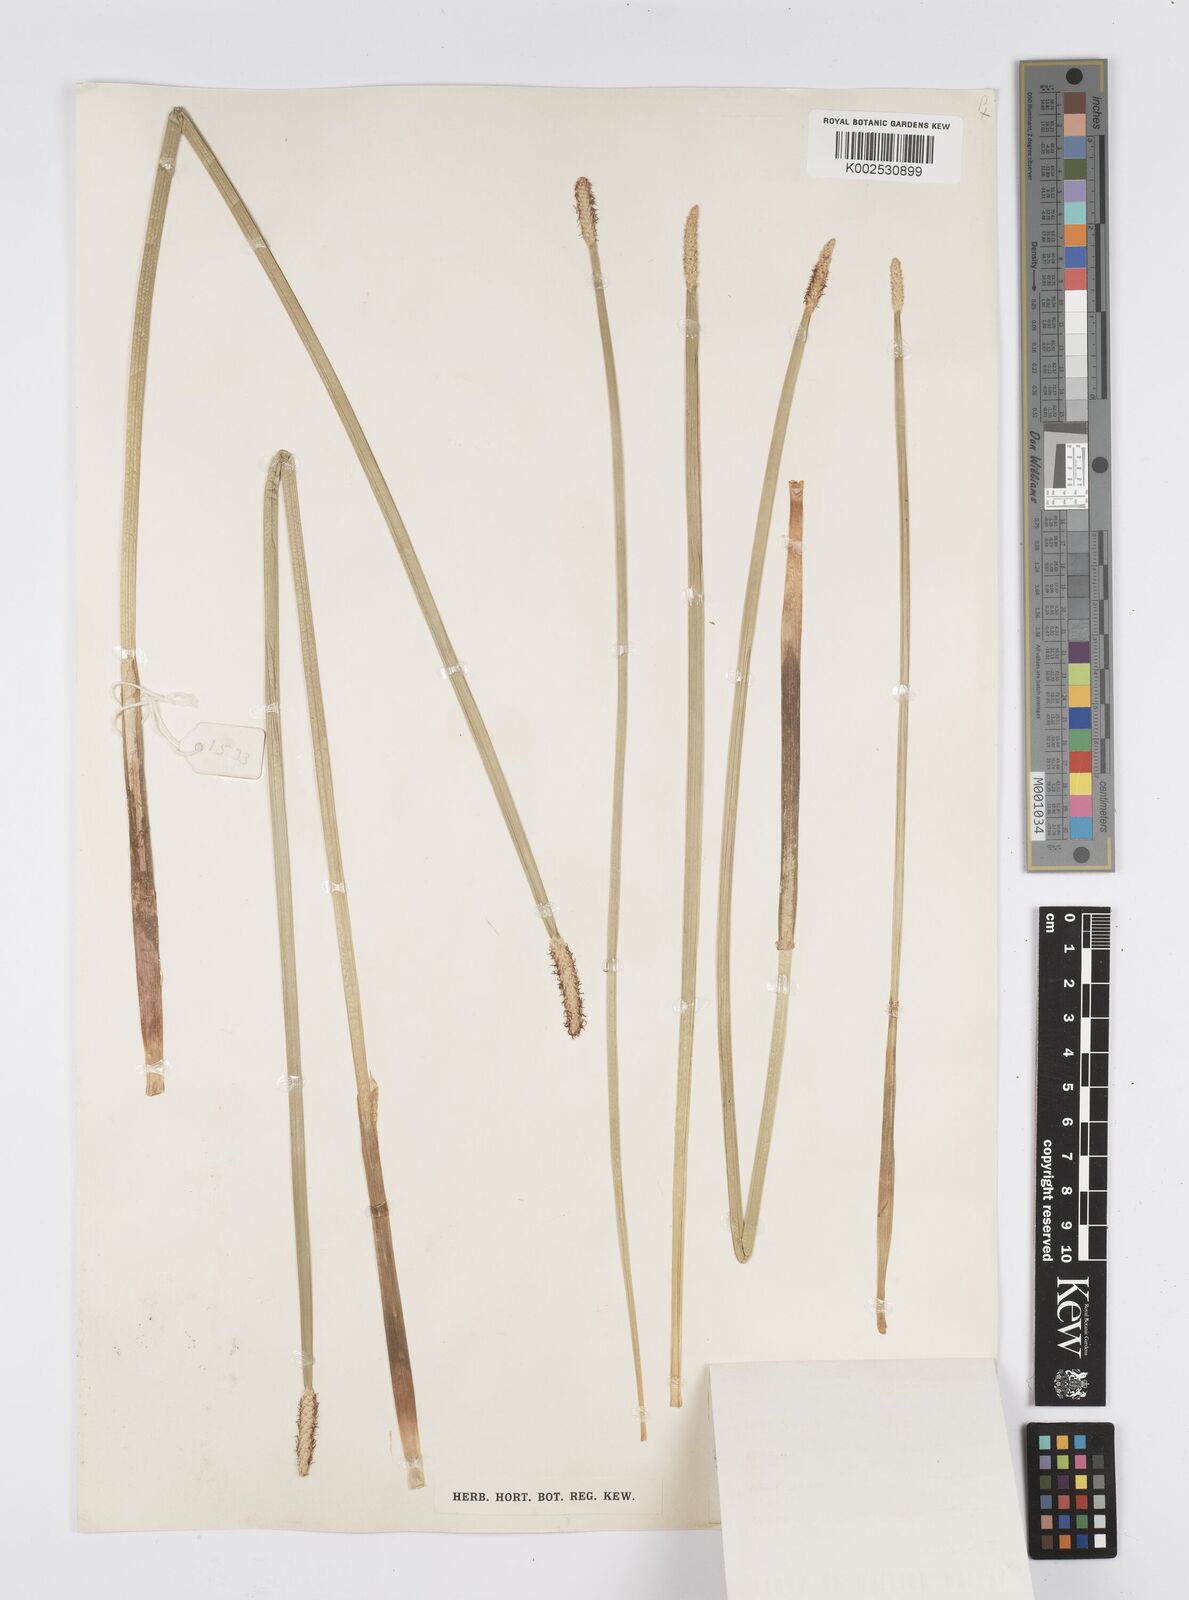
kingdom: Plantae
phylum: Tracheophyta
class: Liliopsida
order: Poales
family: Cyperaceae
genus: Eleocharis
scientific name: Eleocharis mutata
